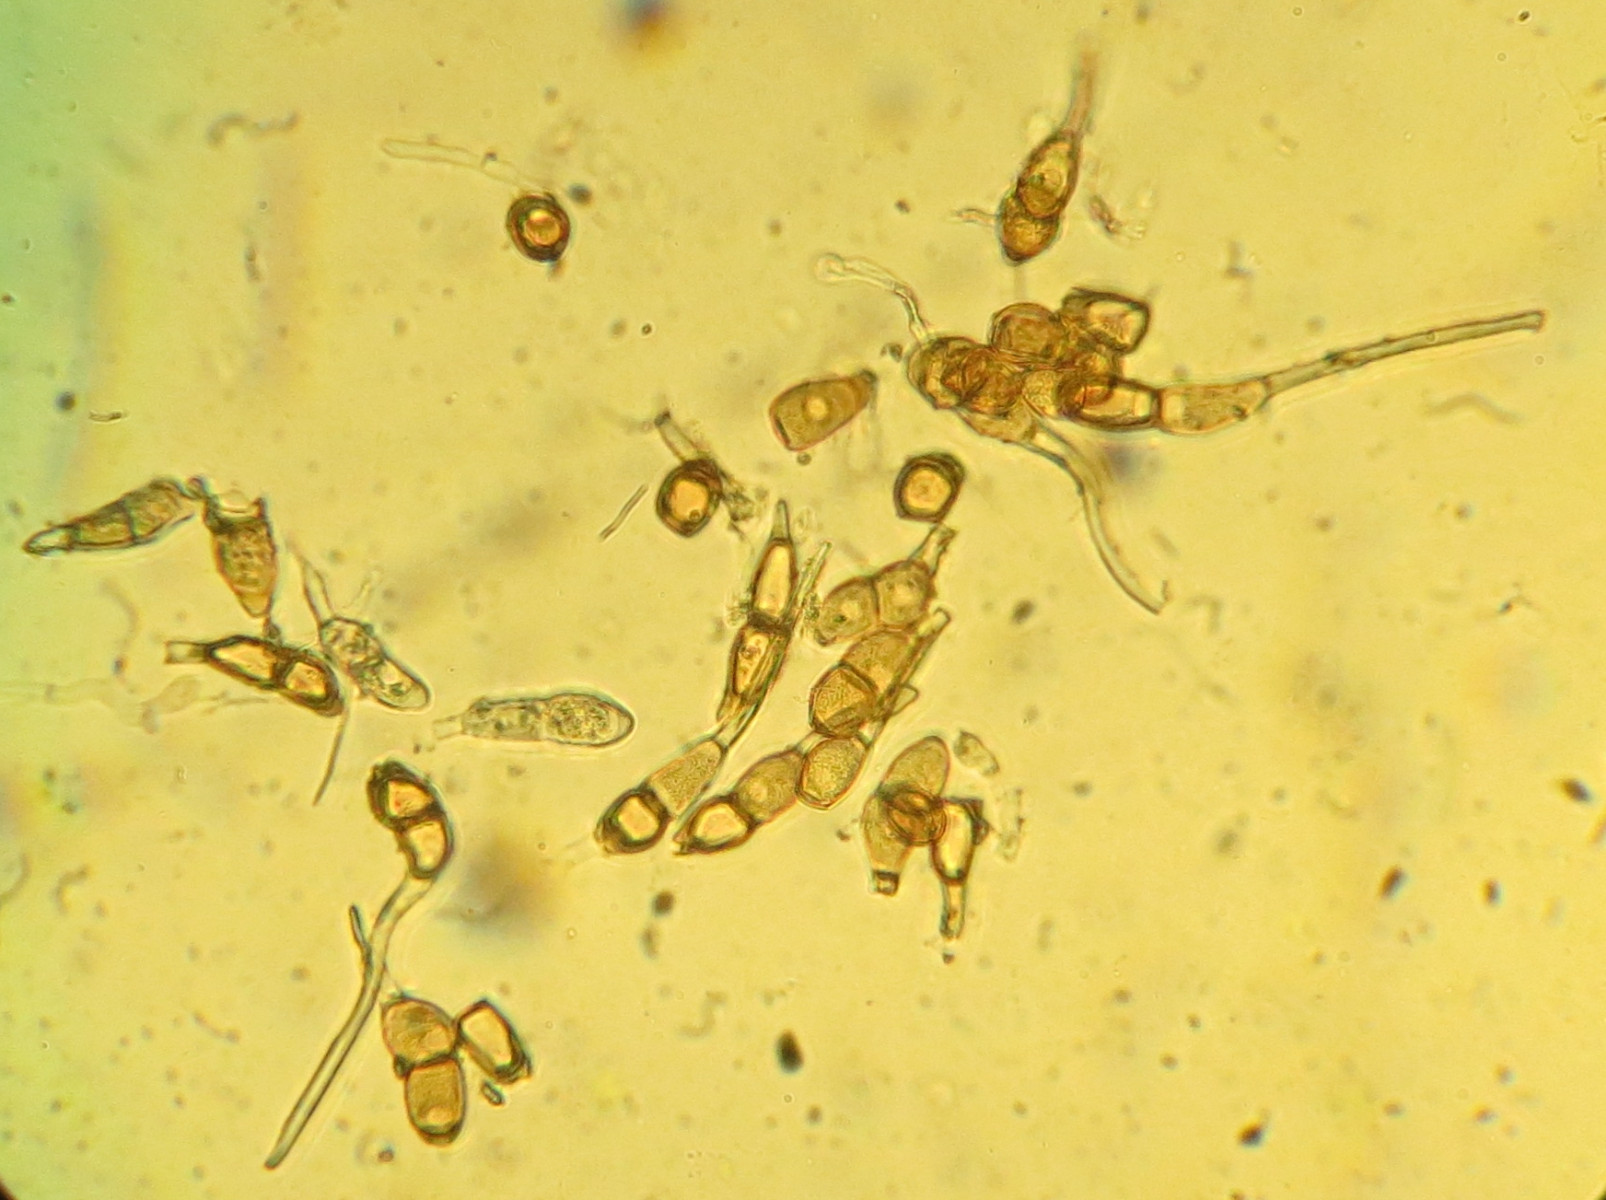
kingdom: Fungi
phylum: Basidiomycota
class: Pucciniomycetes
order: Pucciniales
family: Pucciniaceae
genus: Puccinia
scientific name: Puccinia arenariae
